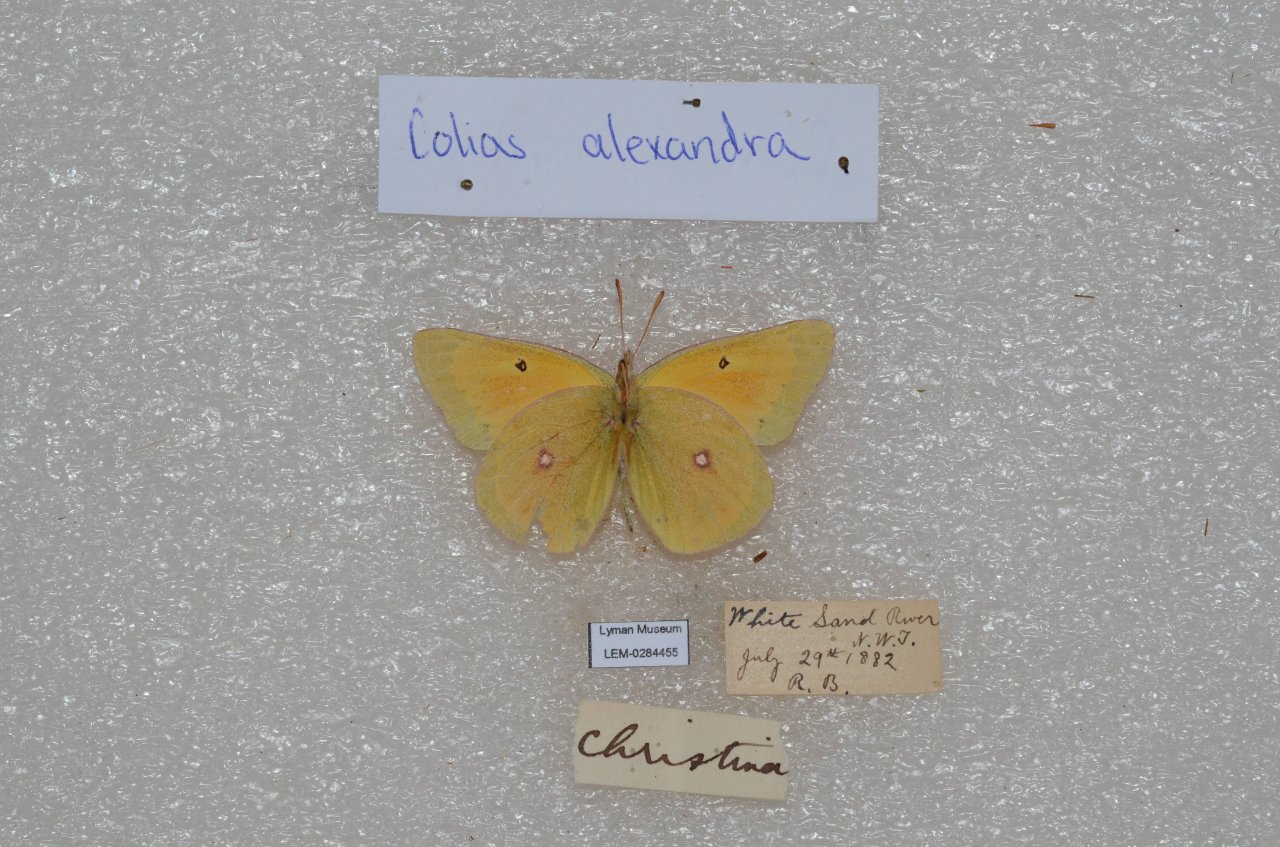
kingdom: Animalia
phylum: Arthropoda
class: Insecta
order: Lepidoptera
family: Pieridae
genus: Colias
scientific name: Colias christina
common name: Christina Sulphur
